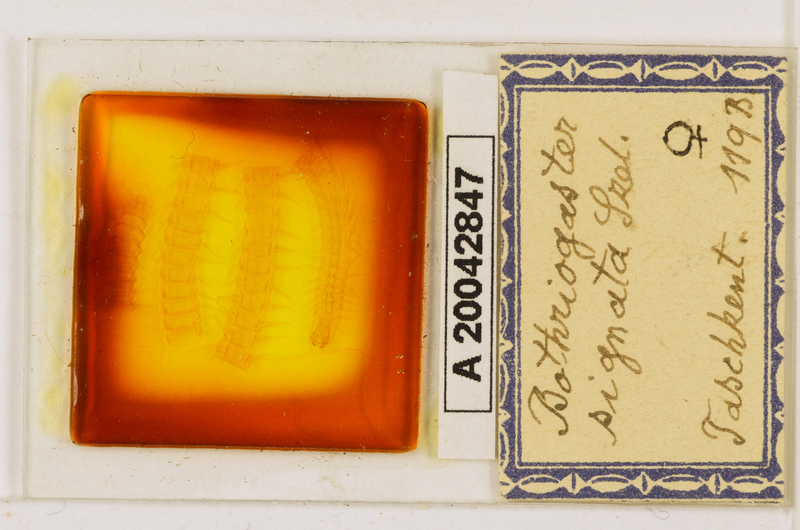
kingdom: Animalia
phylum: Arthropoda
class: Chilopoda
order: Geophilomorpha
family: Himantariidae
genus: Bothriogaster
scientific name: Bothriogaster signata
